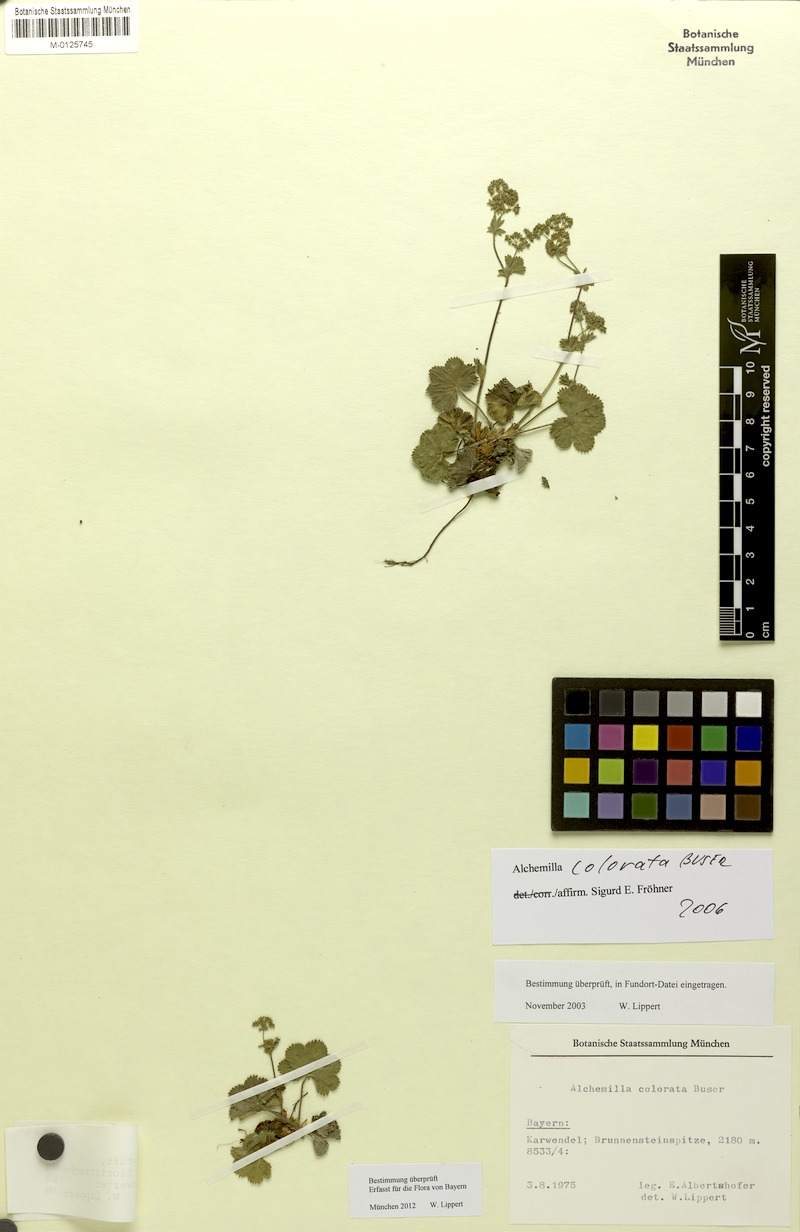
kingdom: Plantae
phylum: Tracheophyta
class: Magnoliopsida
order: Rosales
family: Rosaceae
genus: Alchemilla
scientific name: Alchemilla colorata
